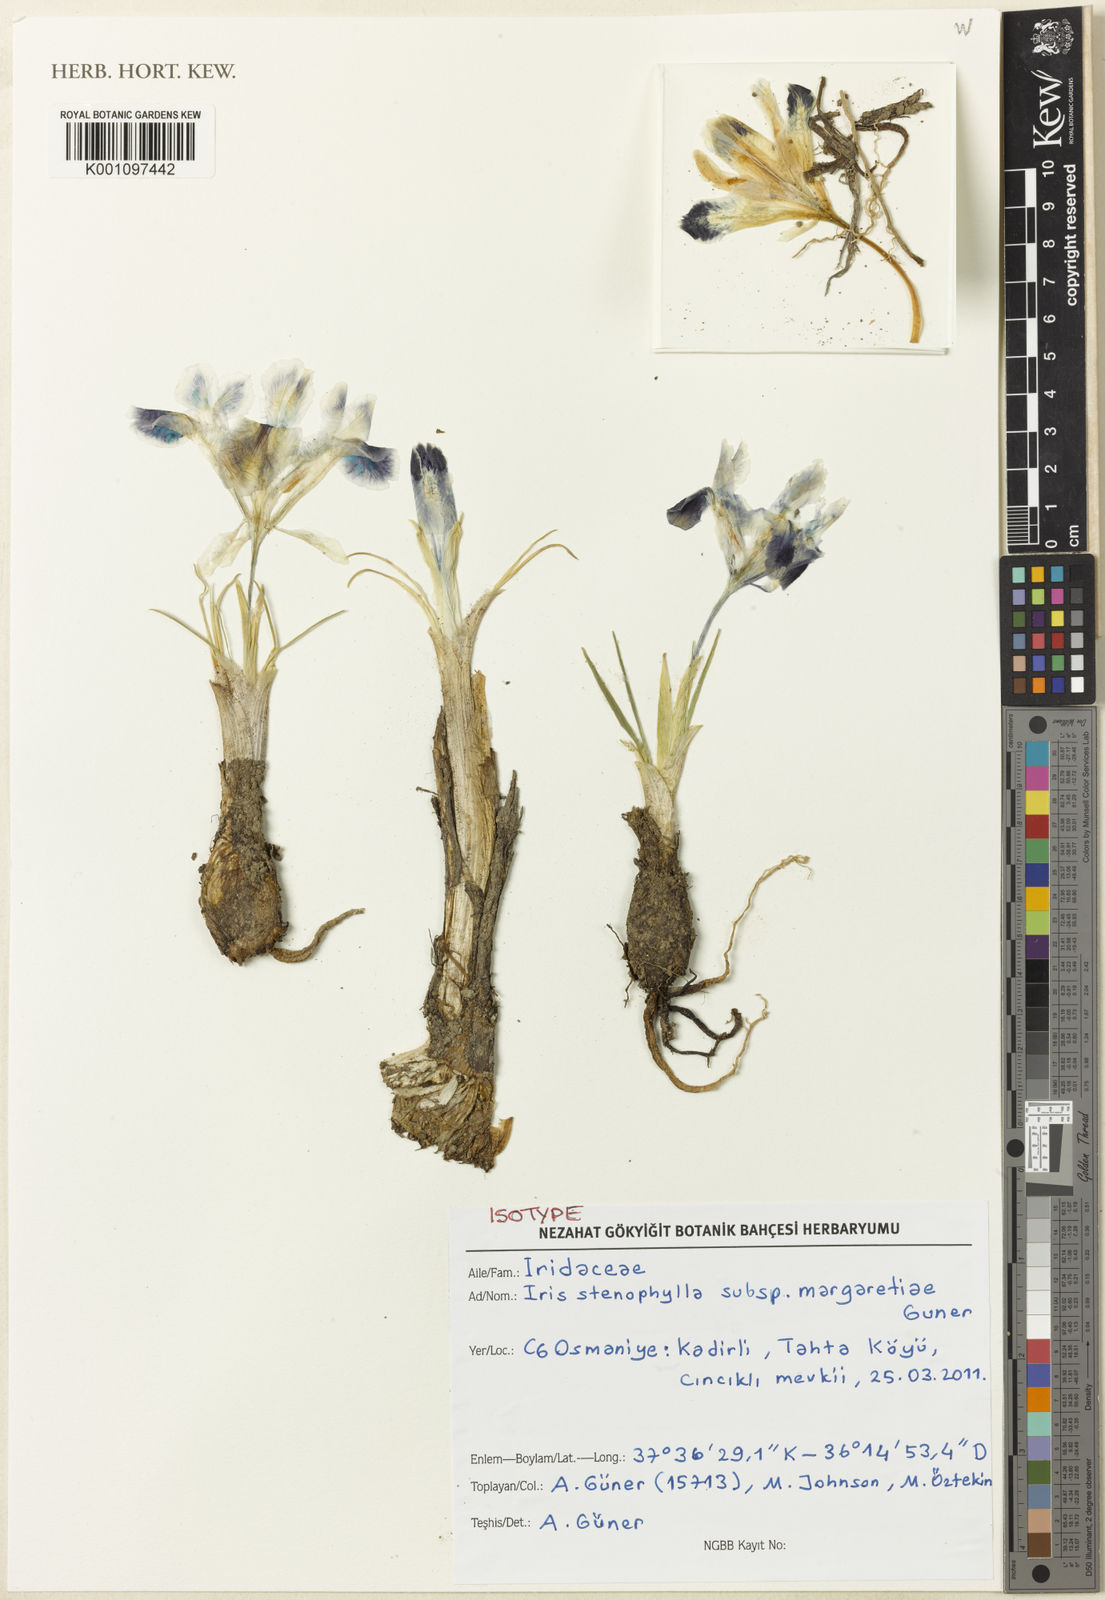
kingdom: Plantae
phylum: Tracheophyta
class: Liliopsida
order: Asparagales
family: Iridaceae
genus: Iris
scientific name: Iris stenophylla
